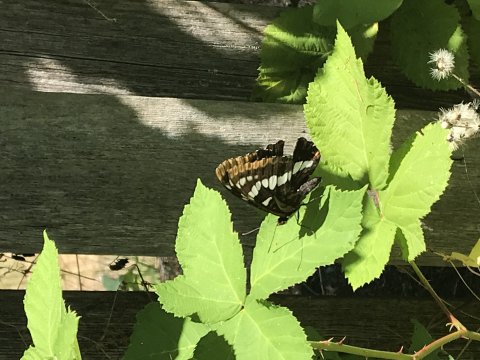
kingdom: Animalia
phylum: Arthropoda
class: Insecta
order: Lepidoptera
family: Nymphalidae
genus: Limenitis
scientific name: Limenitis lorquini
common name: Lorquin's Admiral
